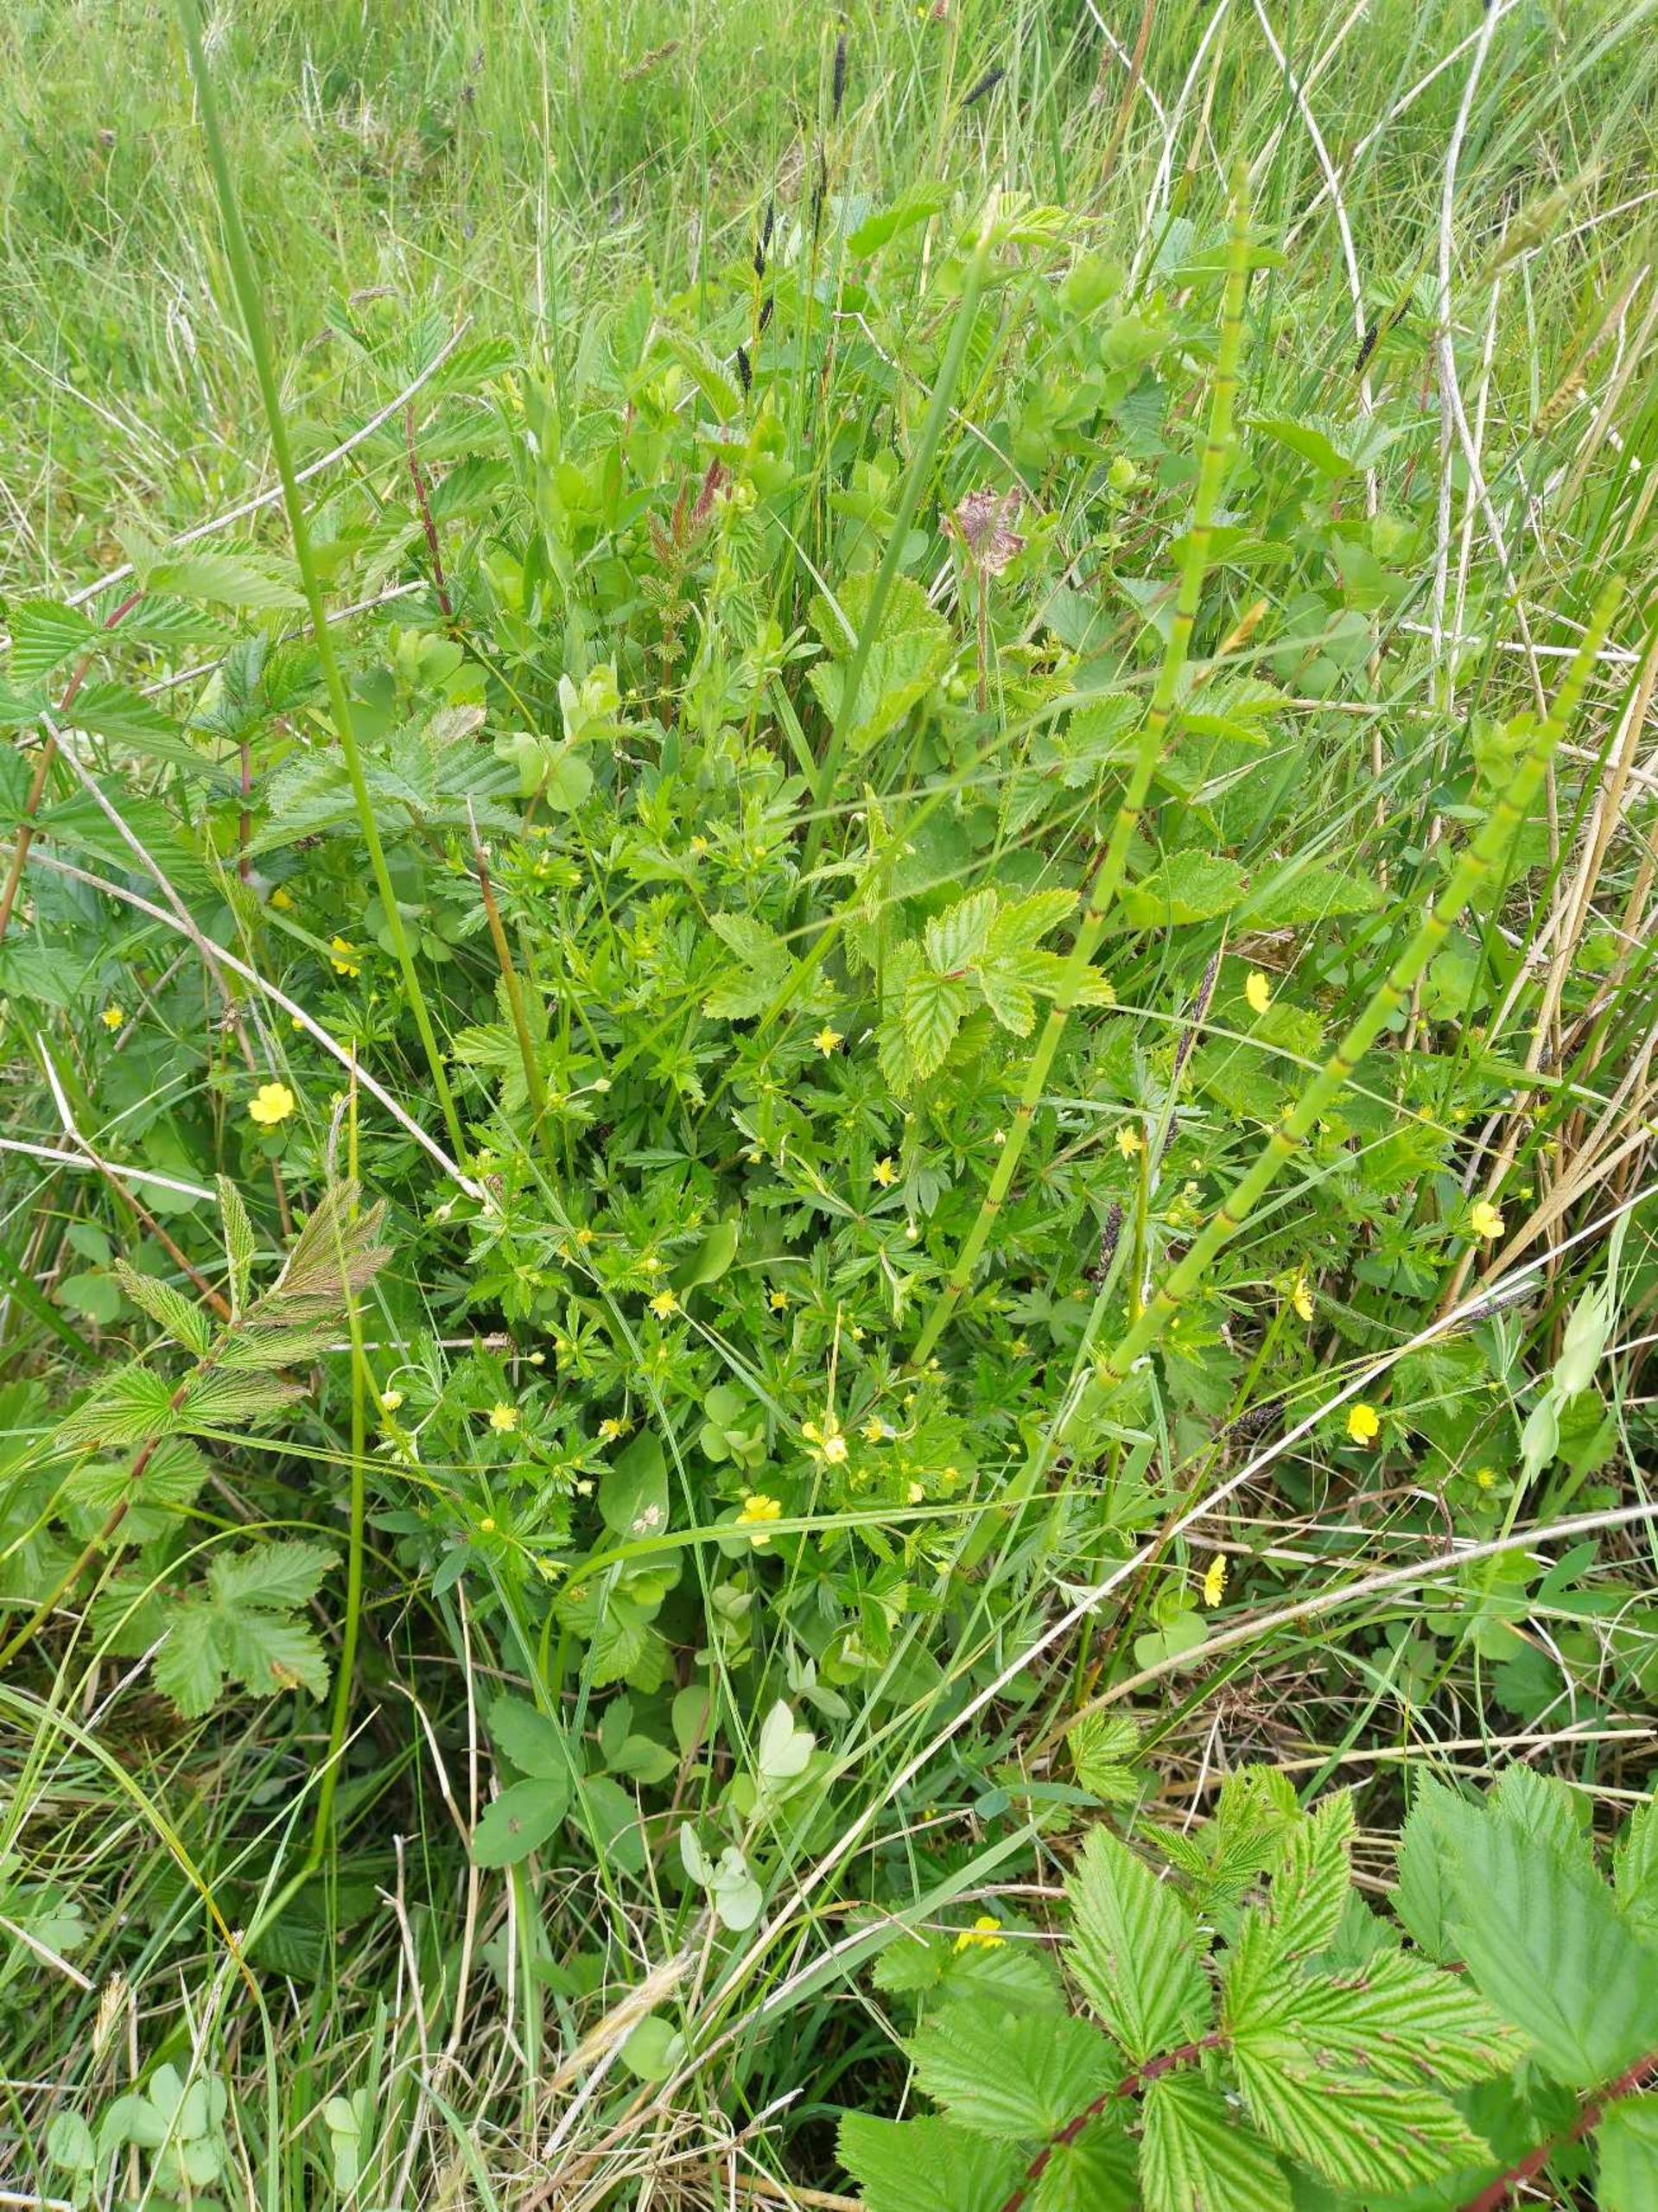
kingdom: Plantae
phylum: Tracheophyta
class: Magnoliopsida
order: Rosales
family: Rosaceae
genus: Potentilla
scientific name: Potentilla erecta
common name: Tormentil
